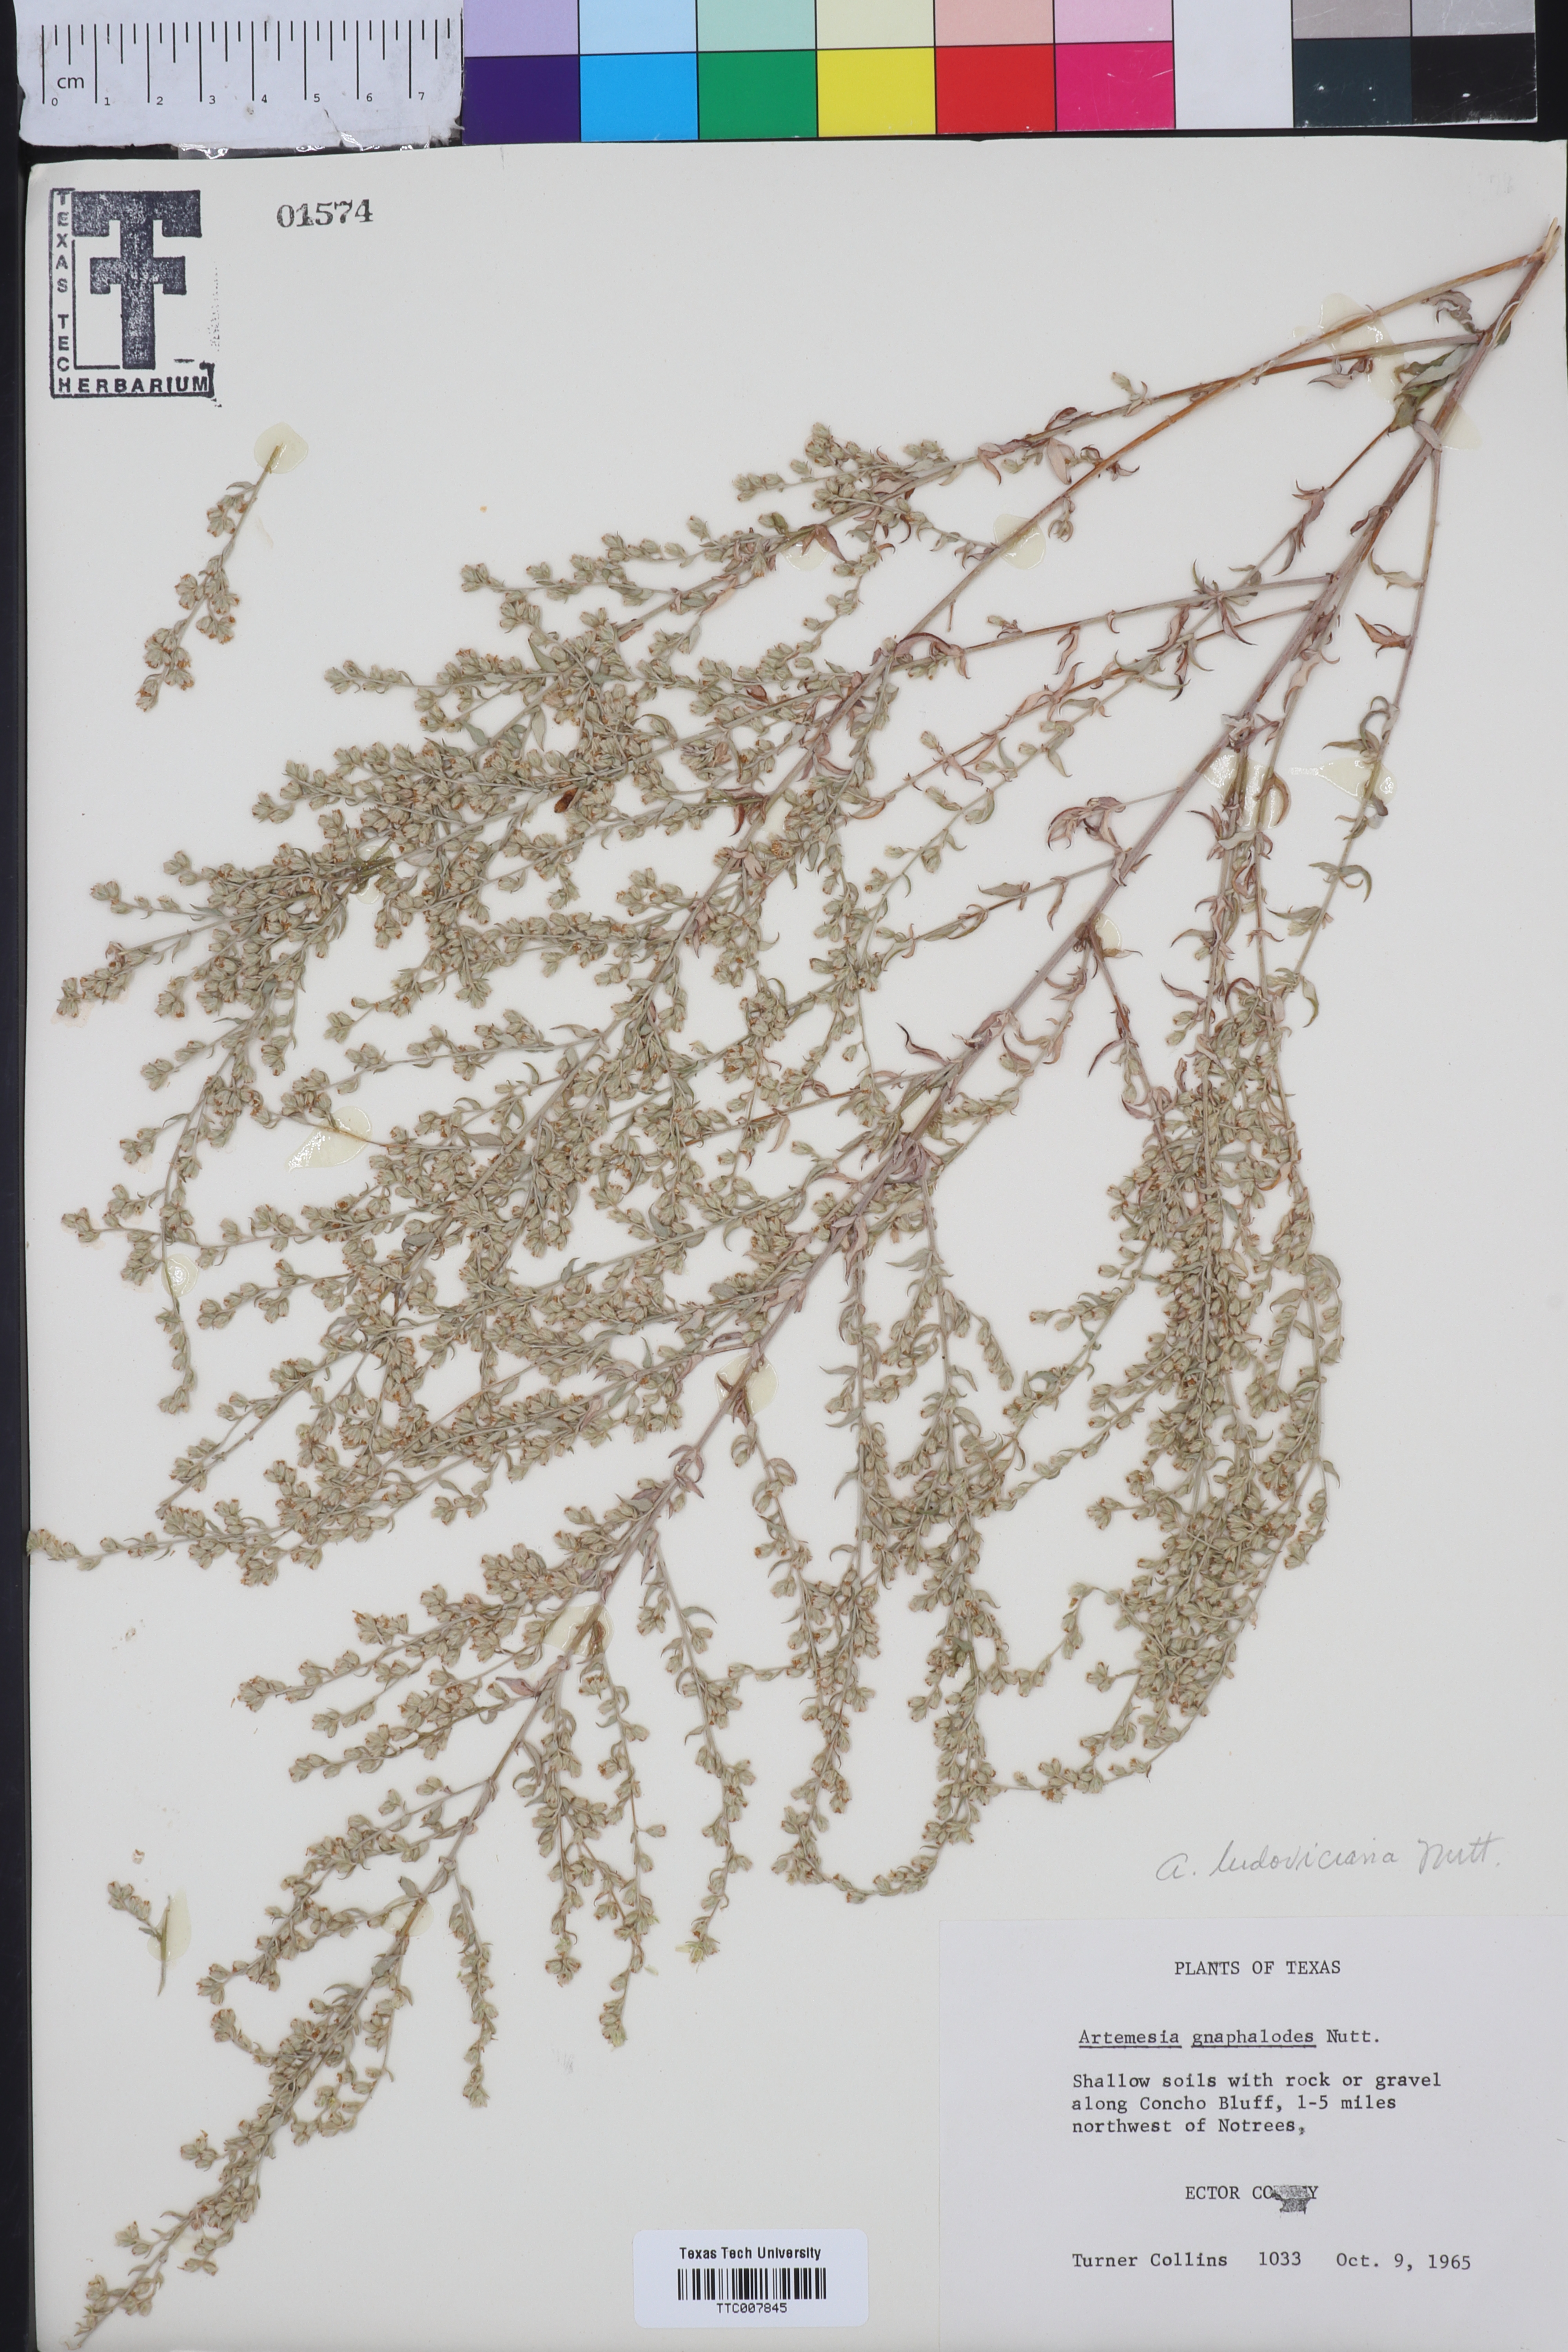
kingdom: Plantae
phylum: Tracheophyta
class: Magnoliopsida
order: Asterales
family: Asteraceae
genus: Artemisia
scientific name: Artemisia ludoviciana
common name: Western mugwort
